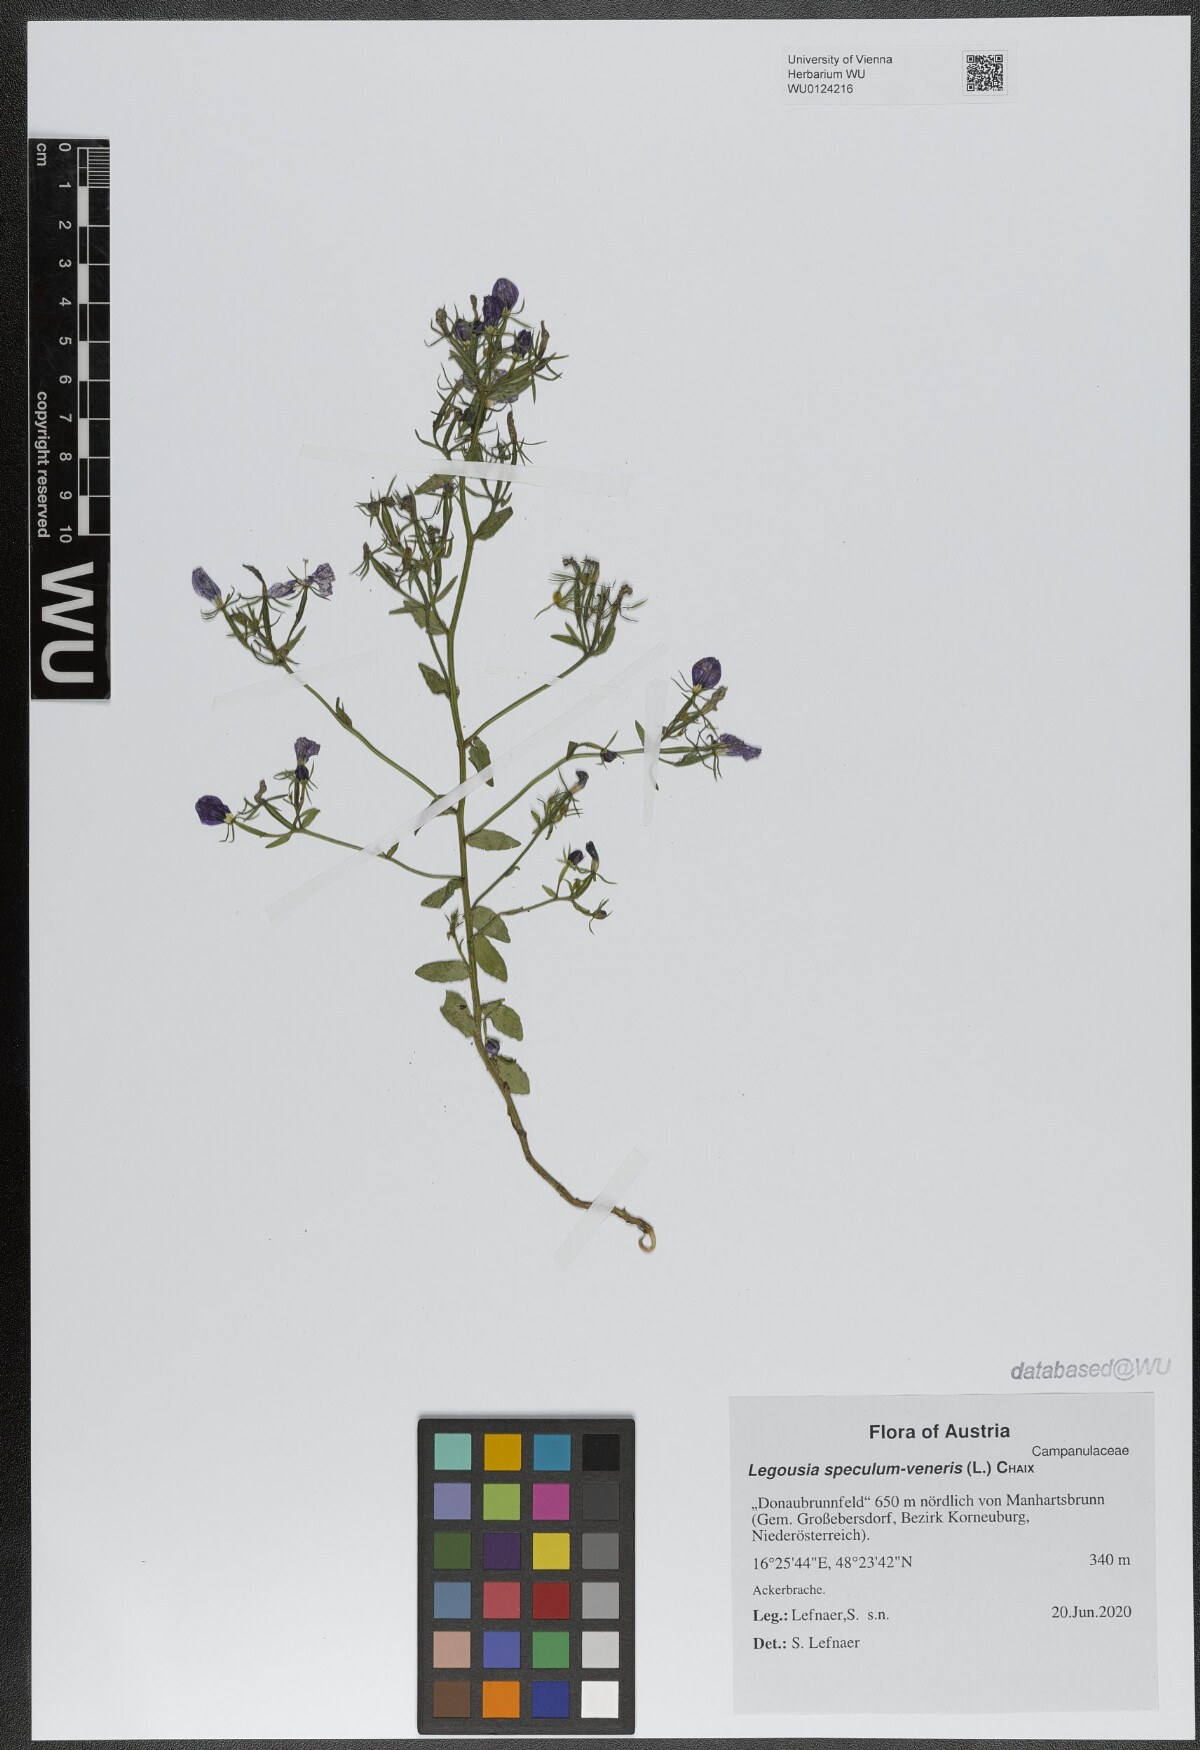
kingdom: Plantae
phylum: Tracheophyta
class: Magnoliopsida
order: Asterales
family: Campanulaceae
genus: Legousia
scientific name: Legousia speculum-veneris
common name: Large venus's-looking-glass
